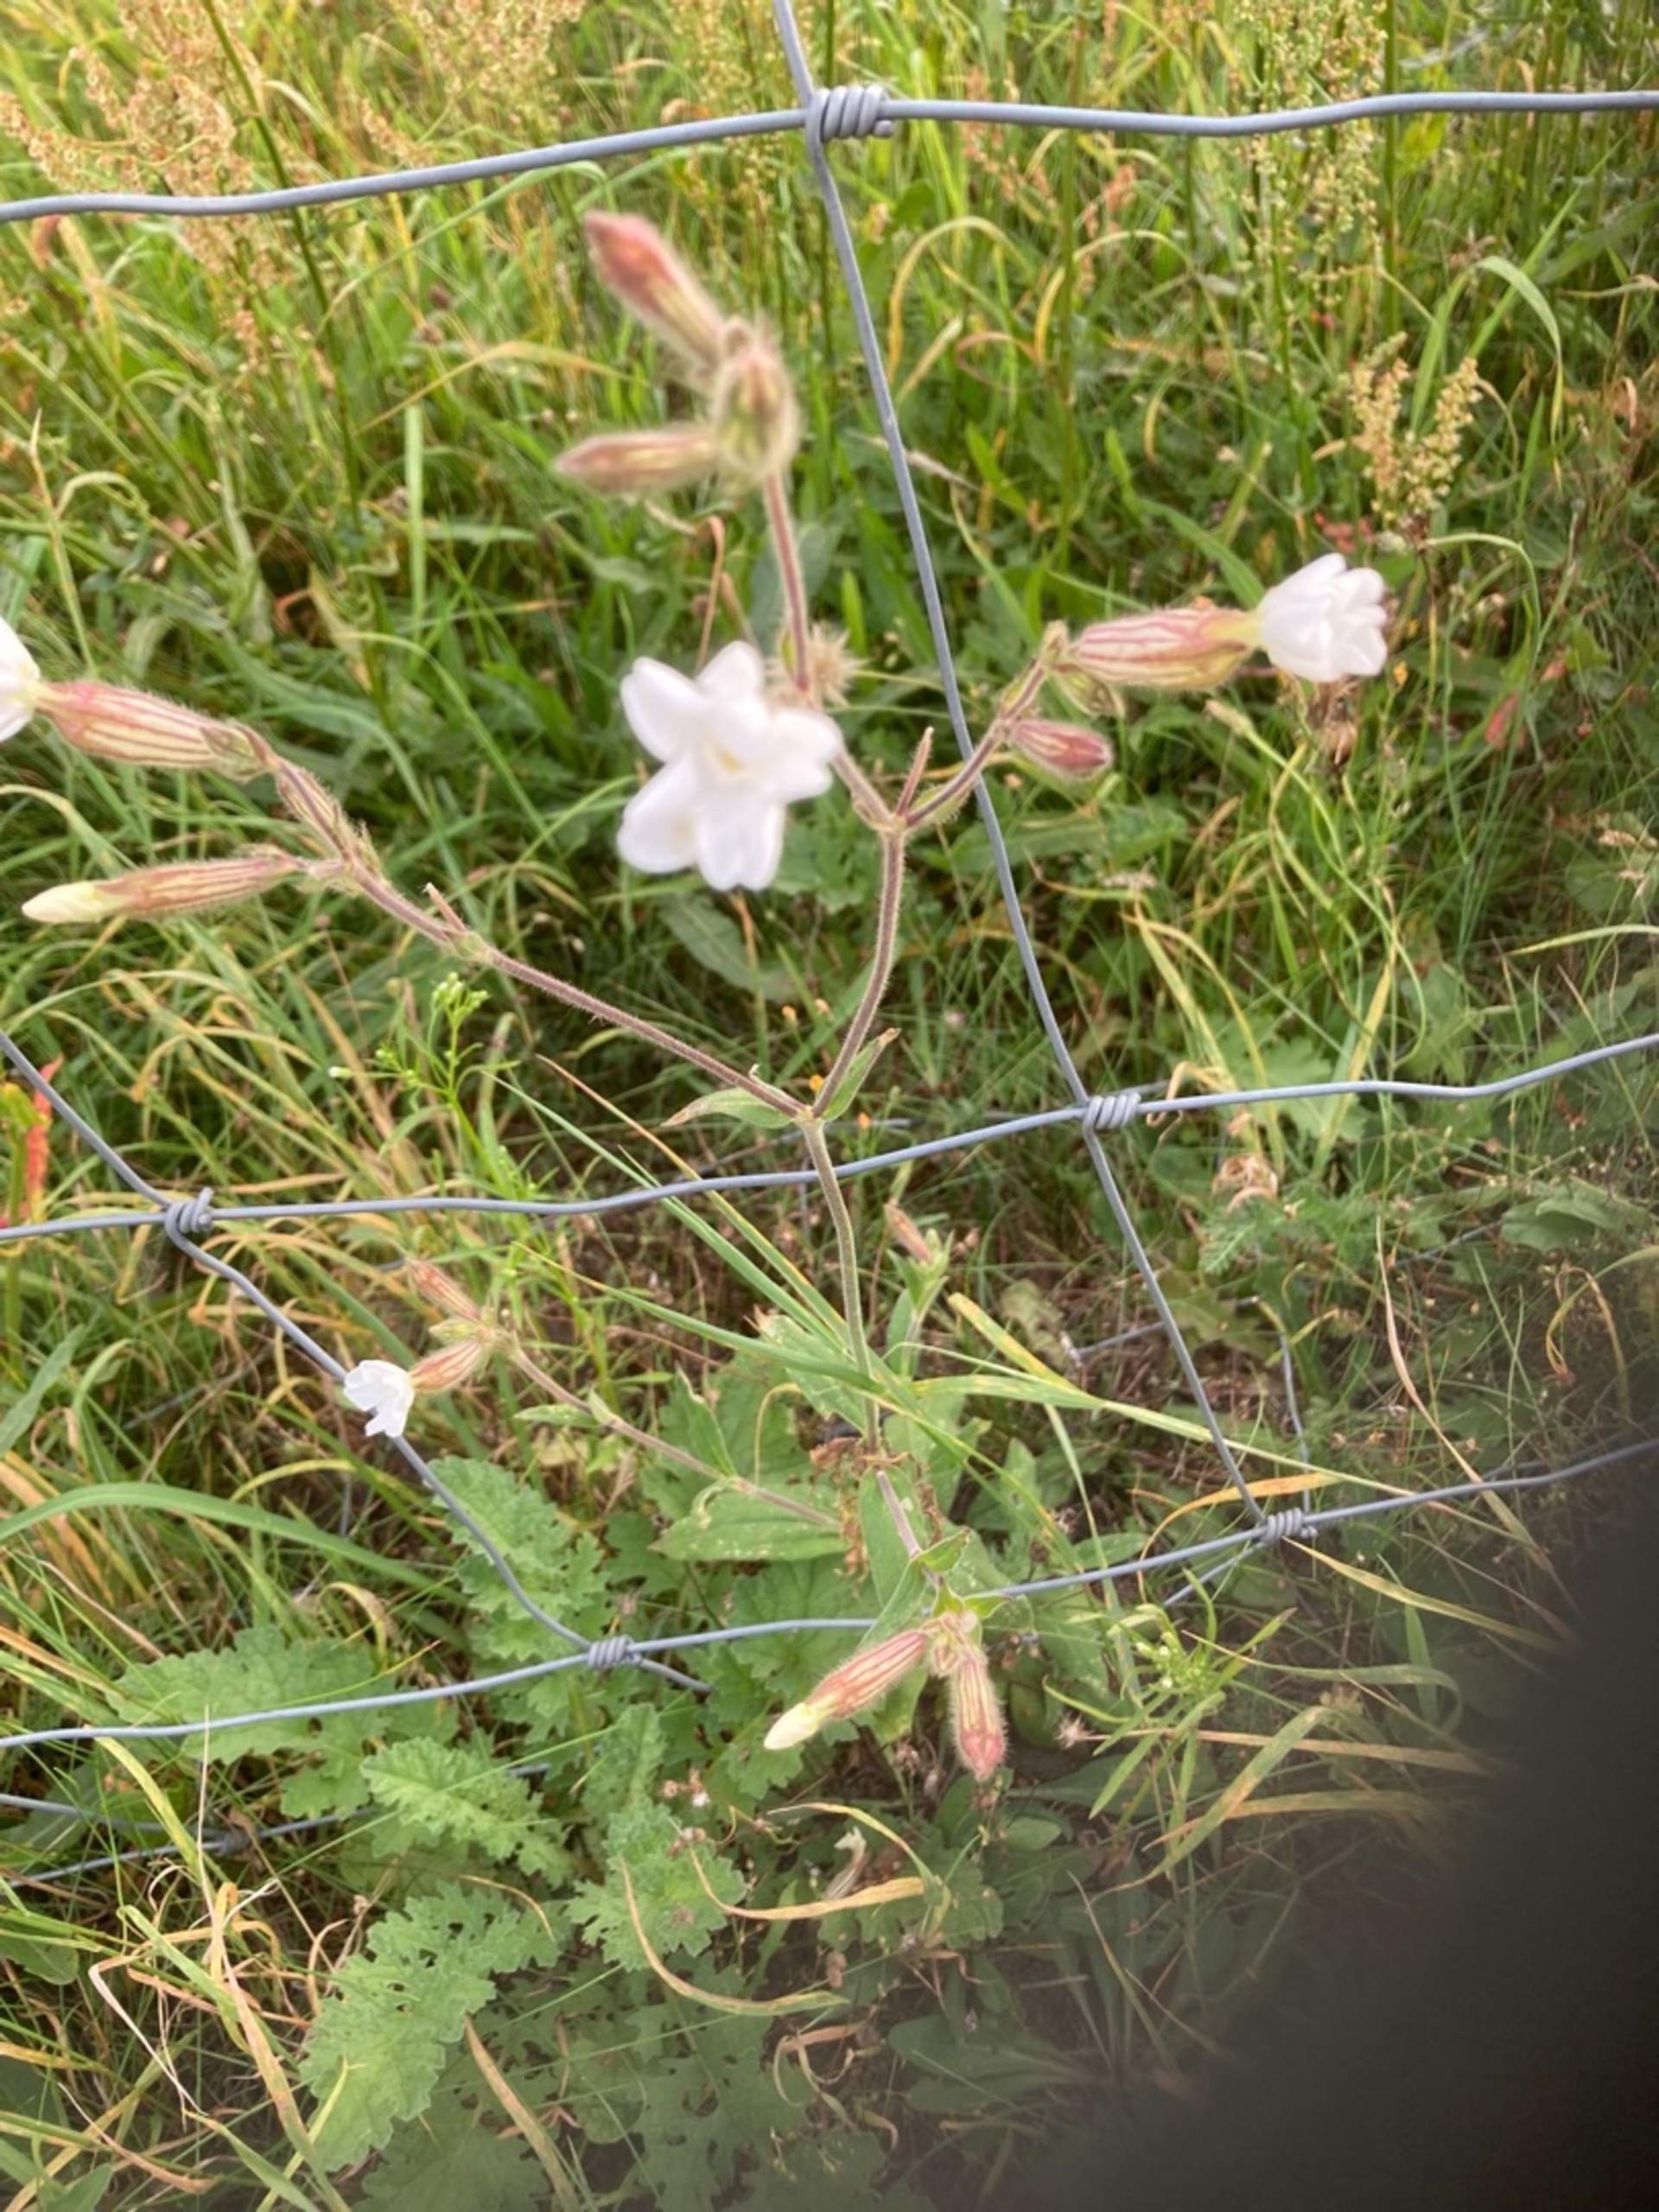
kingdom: Plantae
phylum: Tracheophyta
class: Magnoliopsida
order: Caryophyllales
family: Caryophyllaceae
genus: Silene
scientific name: Silene latifolia
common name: Aftenpragtstjerne
